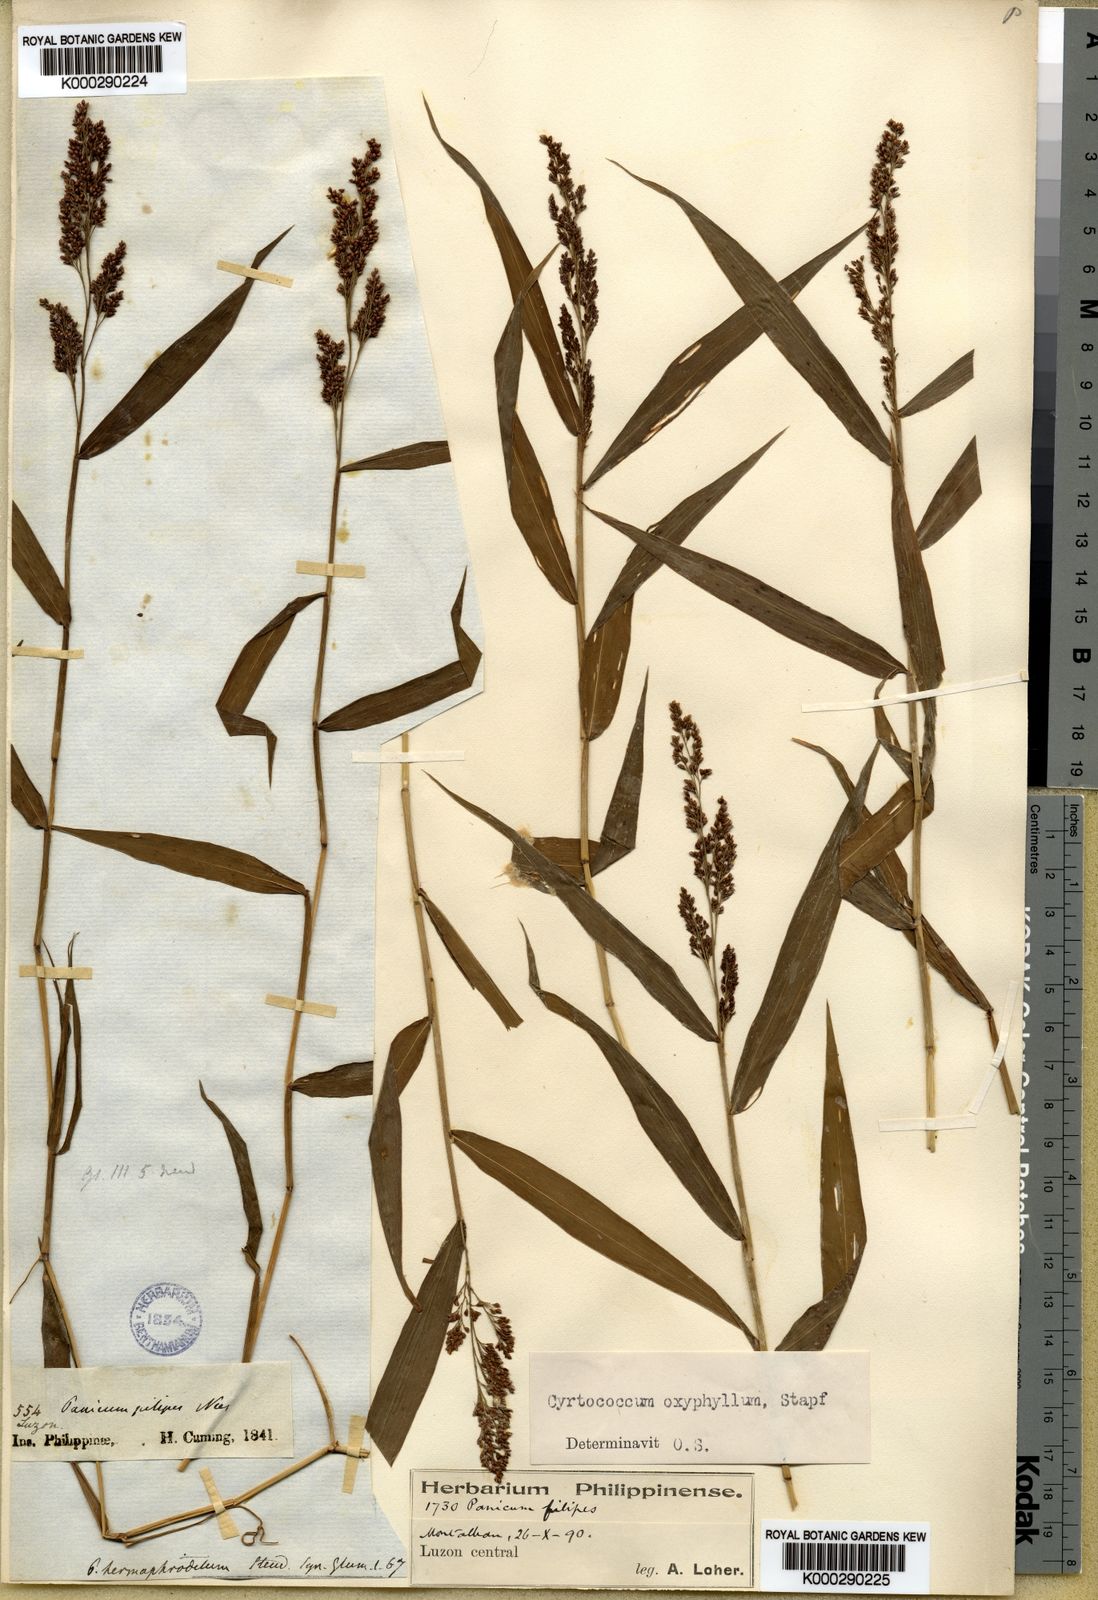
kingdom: Plantae
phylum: Tracheophyta
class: Liliopsida
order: Poales
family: Poaceae
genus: Cyrtococcum
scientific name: Cyrtococcum oxyphyllum
